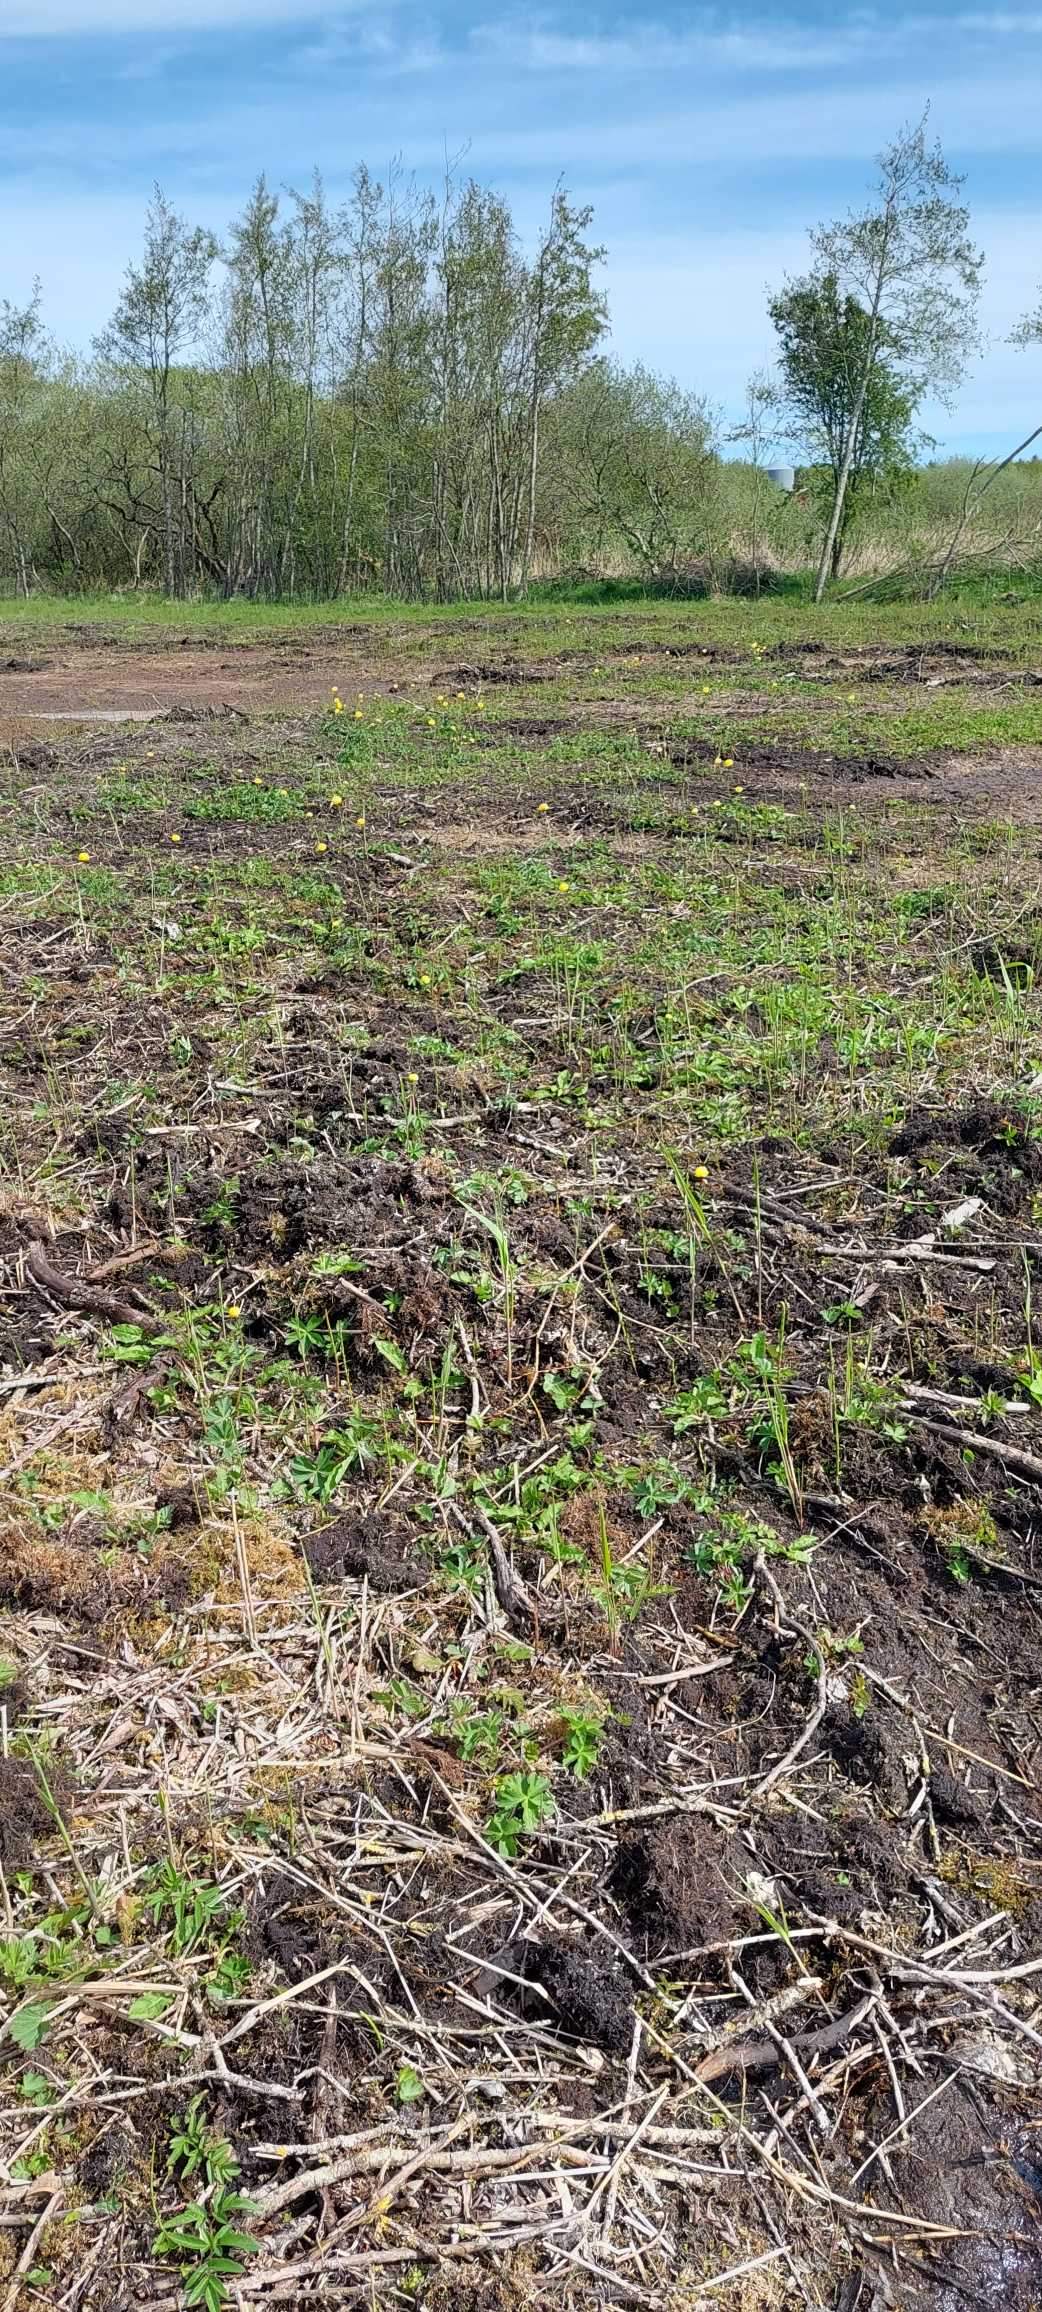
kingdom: Plantae
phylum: Tracheophyta
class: Magnoliopsida
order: Ranunculales
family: Ranunculaceae
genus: Trollius
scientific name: Trollius europaeus
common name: Engblomme
